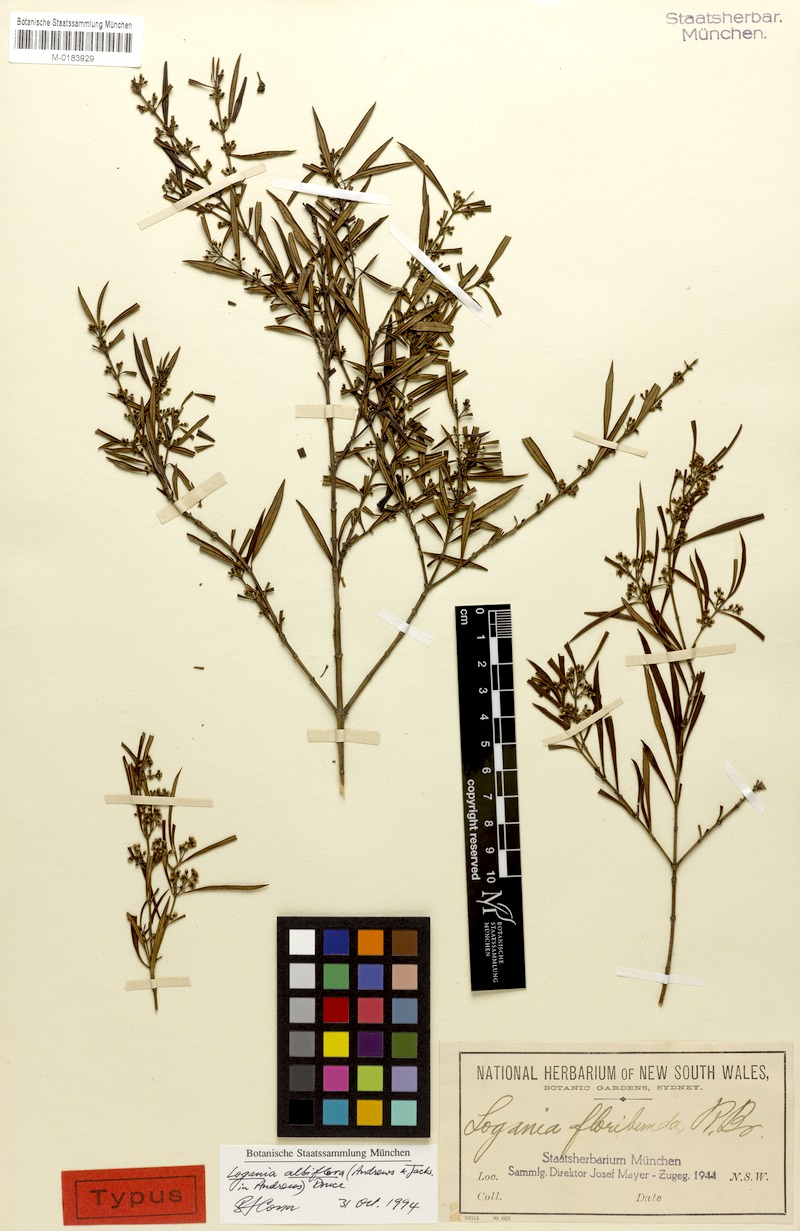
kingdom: Plantae
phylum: Tracheophyta
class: Magnoliopsida
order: Gentianales
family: Loganiaceae
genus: Logania
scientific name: Logania albiflora
